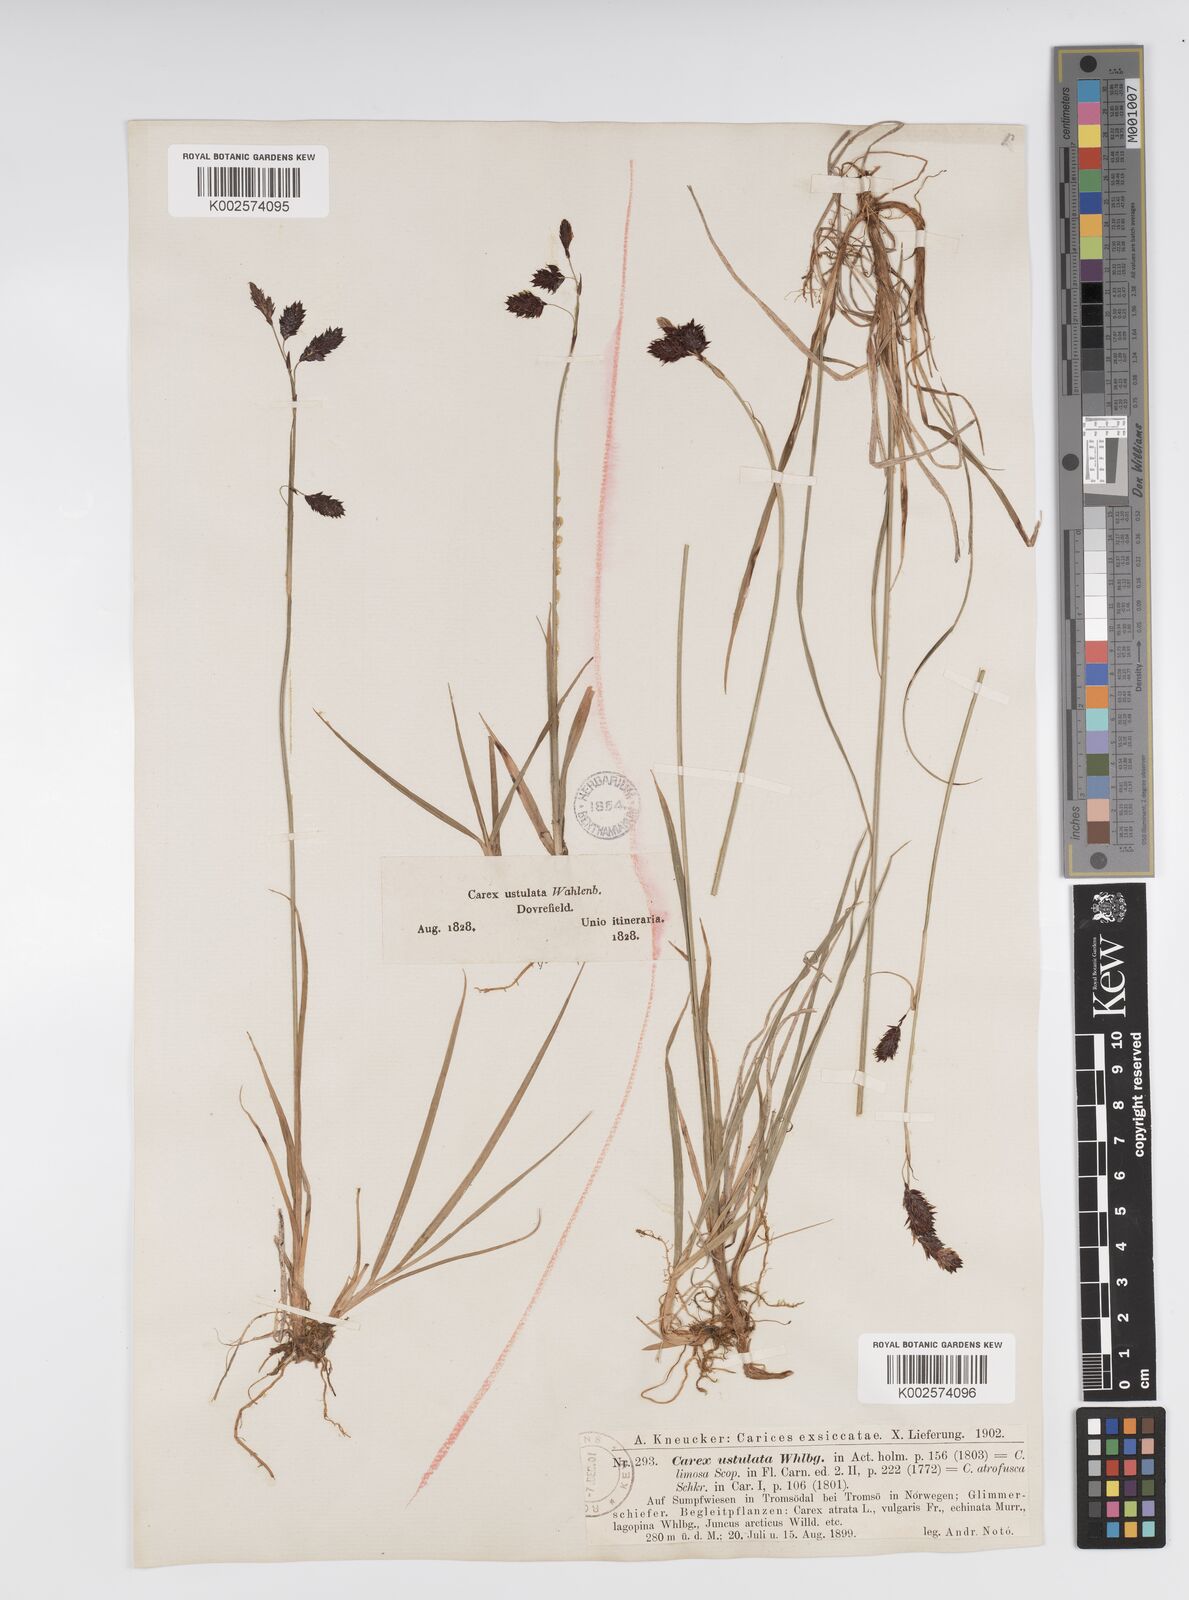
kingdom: Plantae
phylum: Tracheophyta
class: Liliopsida
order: Poales
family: Cyperaceae
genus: Carex
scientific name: Carex atrofusca
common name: Scorched alpine-sedge
